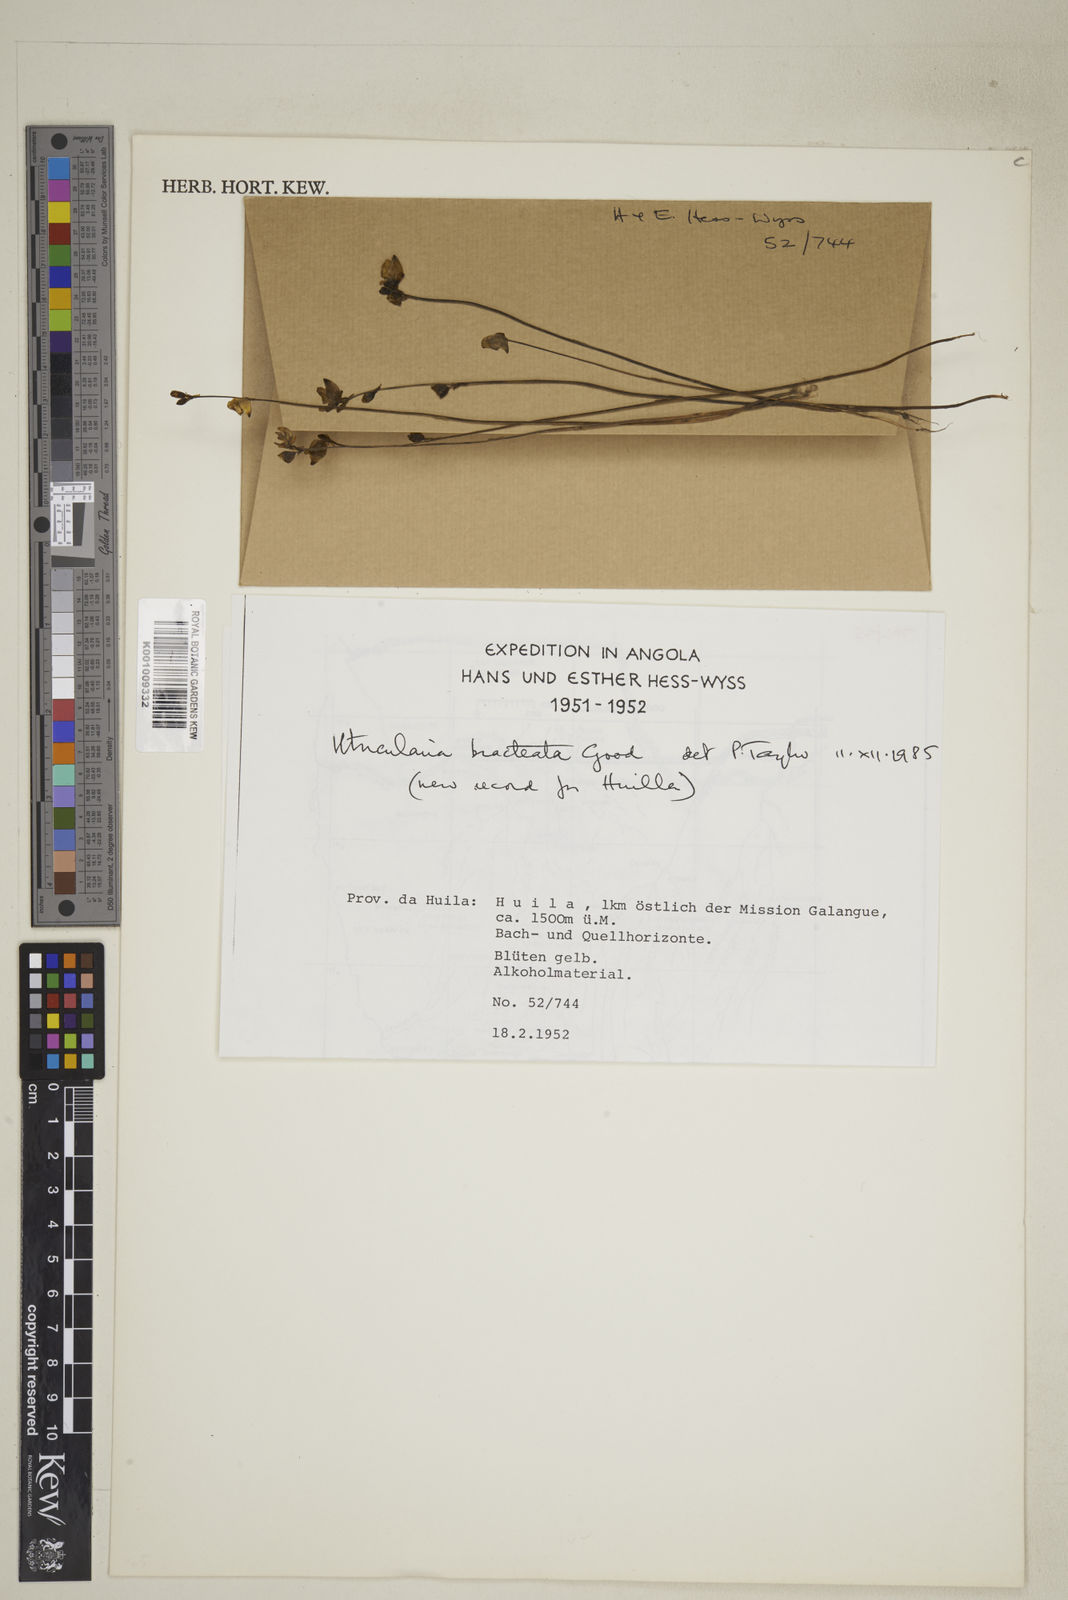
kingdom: Plantae
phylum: Tracheophyta
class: Magnoliopsida
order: Lamiales
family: Lentibulariaceae
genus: Utricularia
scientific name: Utricularia bracteata
